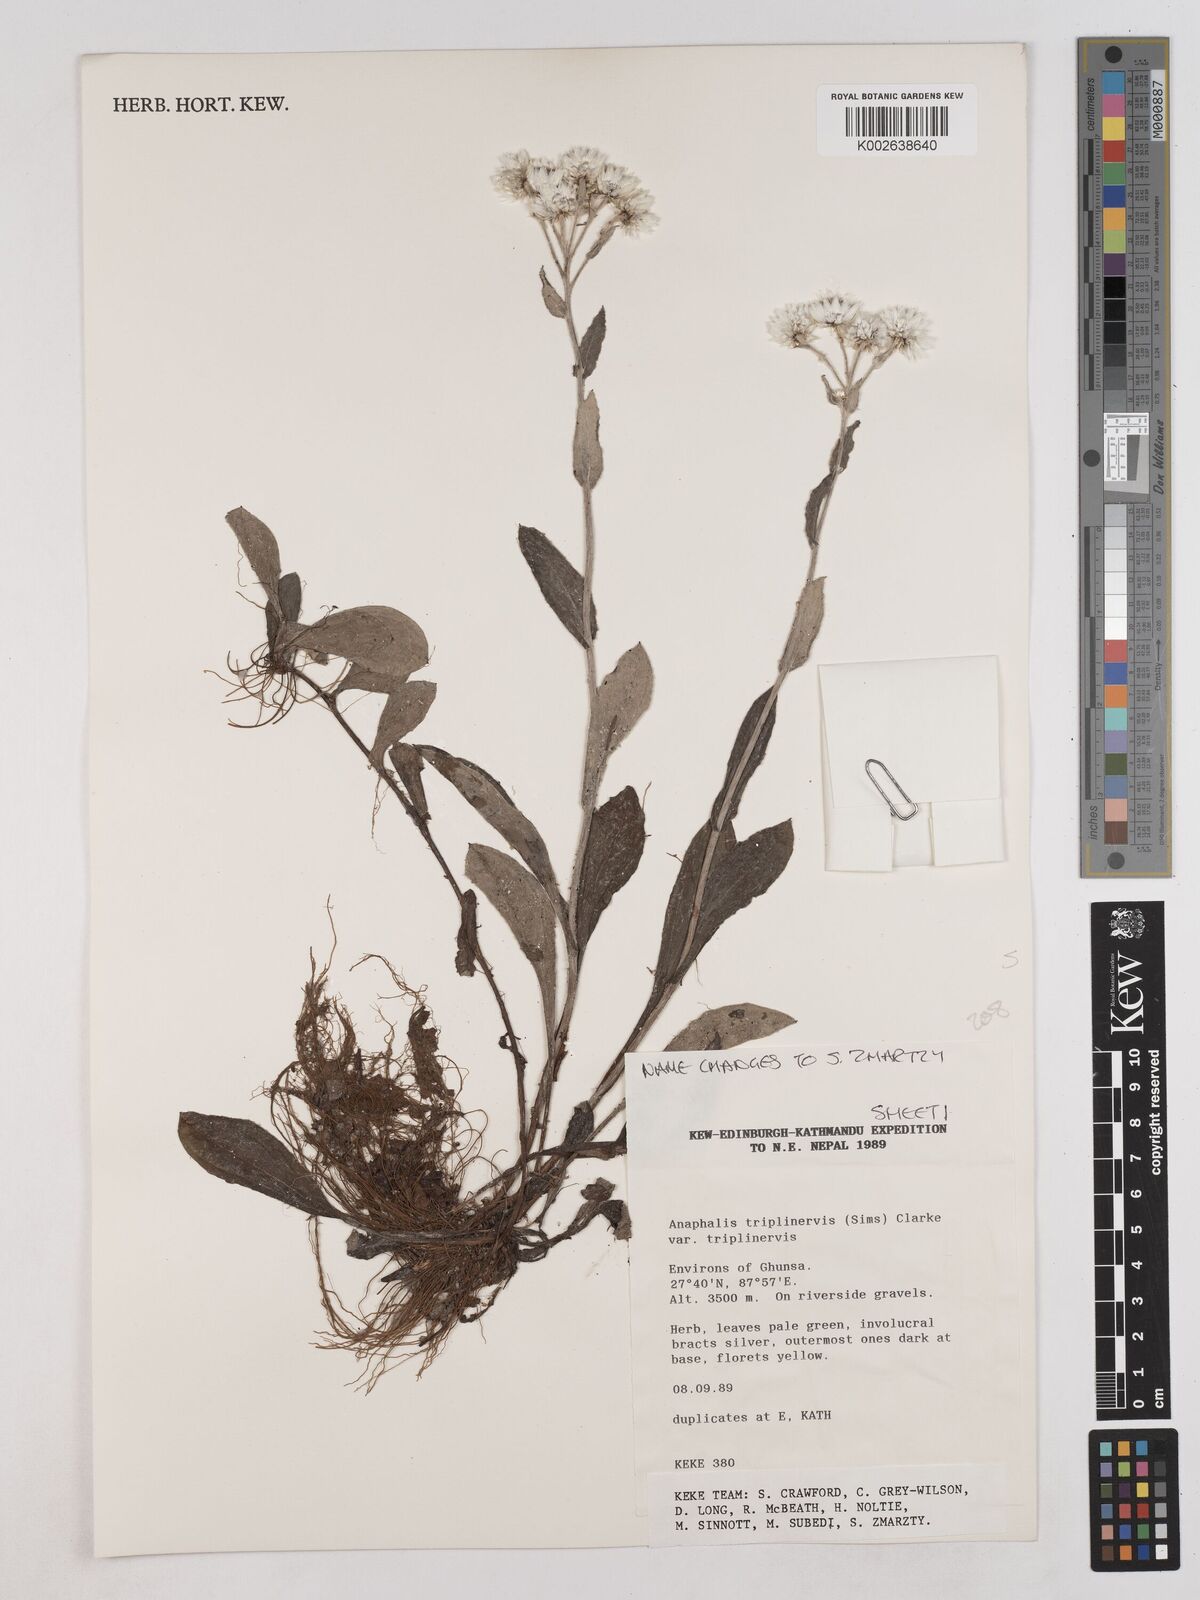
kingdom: Plantae
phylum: Tracheophyta
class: Magnoliopsida
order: Asterales
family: Asteraceae
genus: Anaphalis
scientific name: Anaphalis triplinervis
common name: Pearly everlasting
